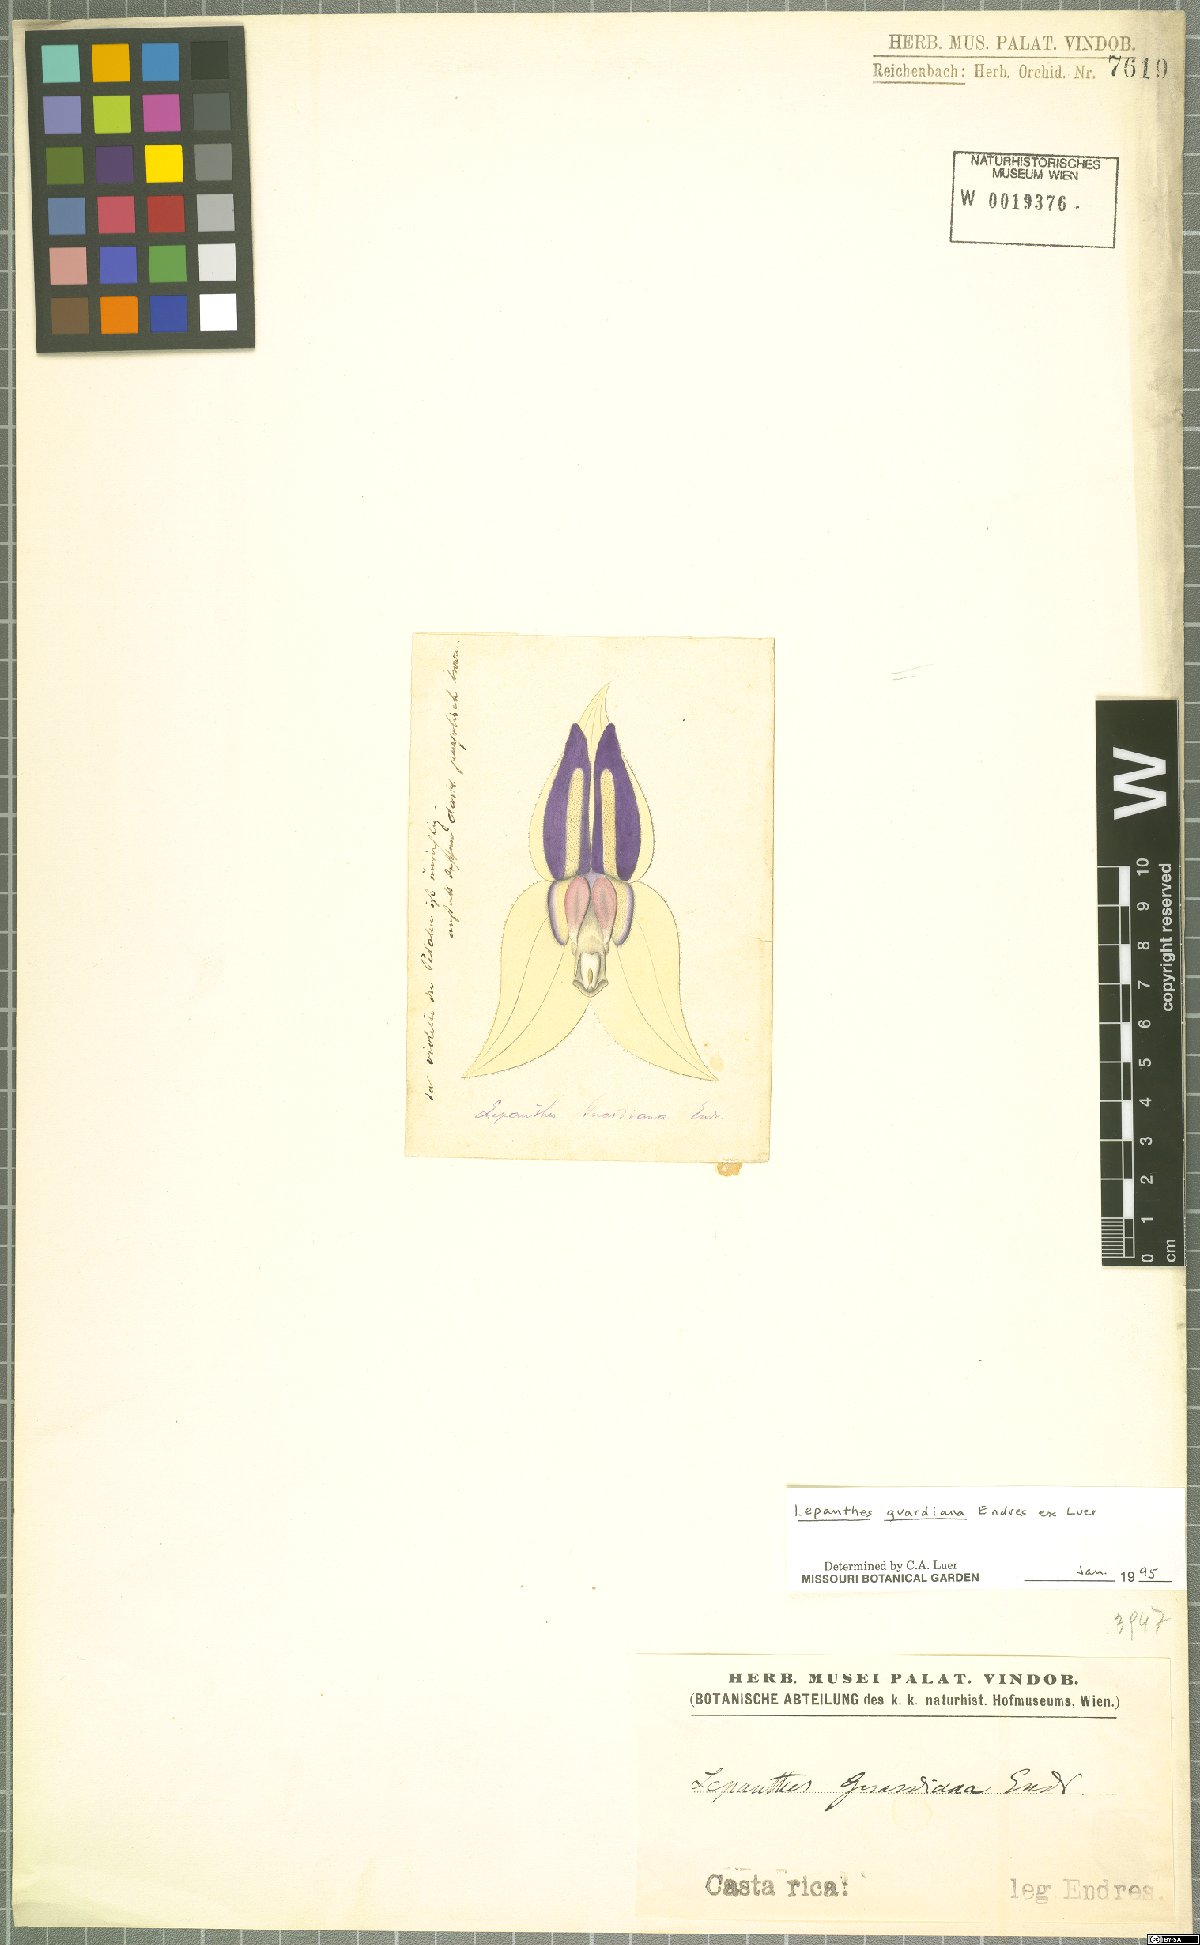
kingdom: Plantae
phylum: Tracheophyta
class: Liliopsida
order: Asparagales
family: Orchidaceae
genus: Lepanthes
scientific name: Lepanthes guardiana
